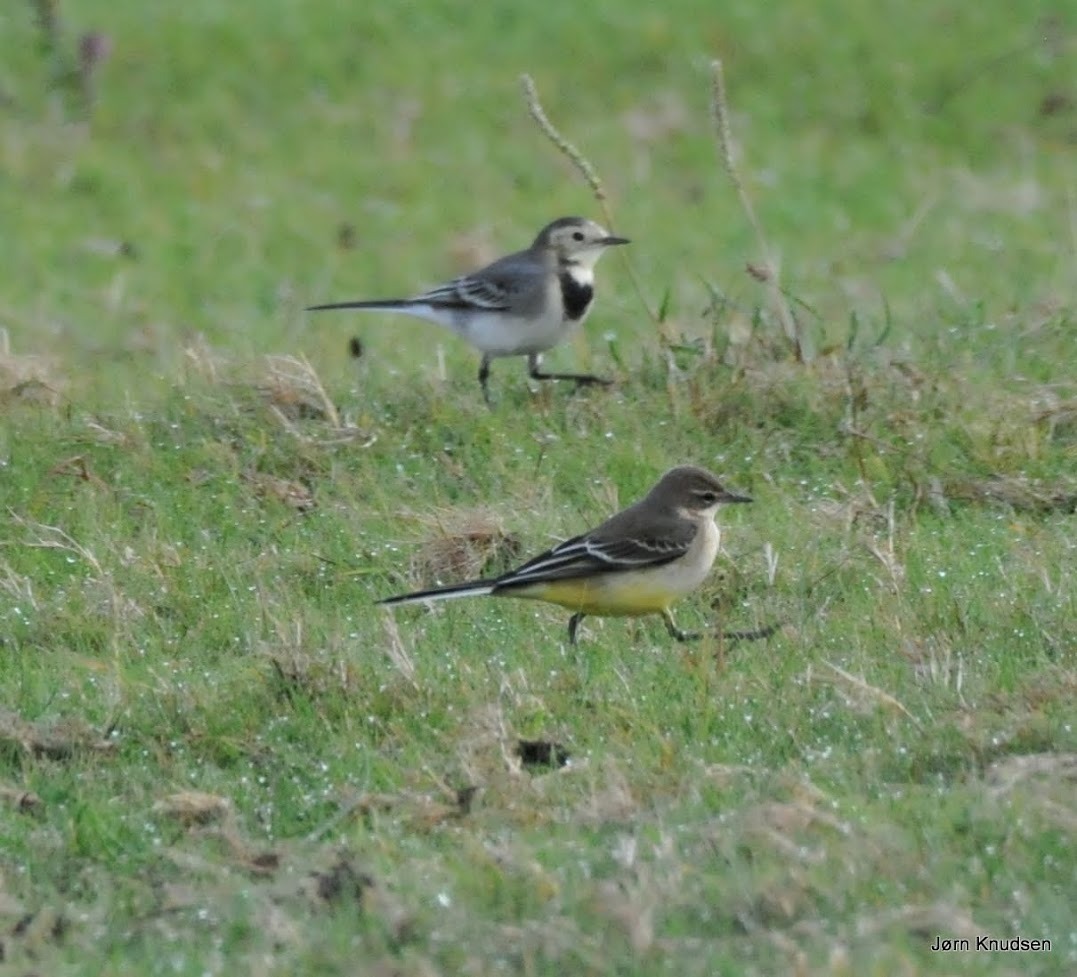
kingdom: Animalia
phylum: Chordata
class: Aves
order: Passeriformes
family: Motacillidae
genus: Motacilla
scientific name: Motacilla flava
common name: Gul vipstjert
